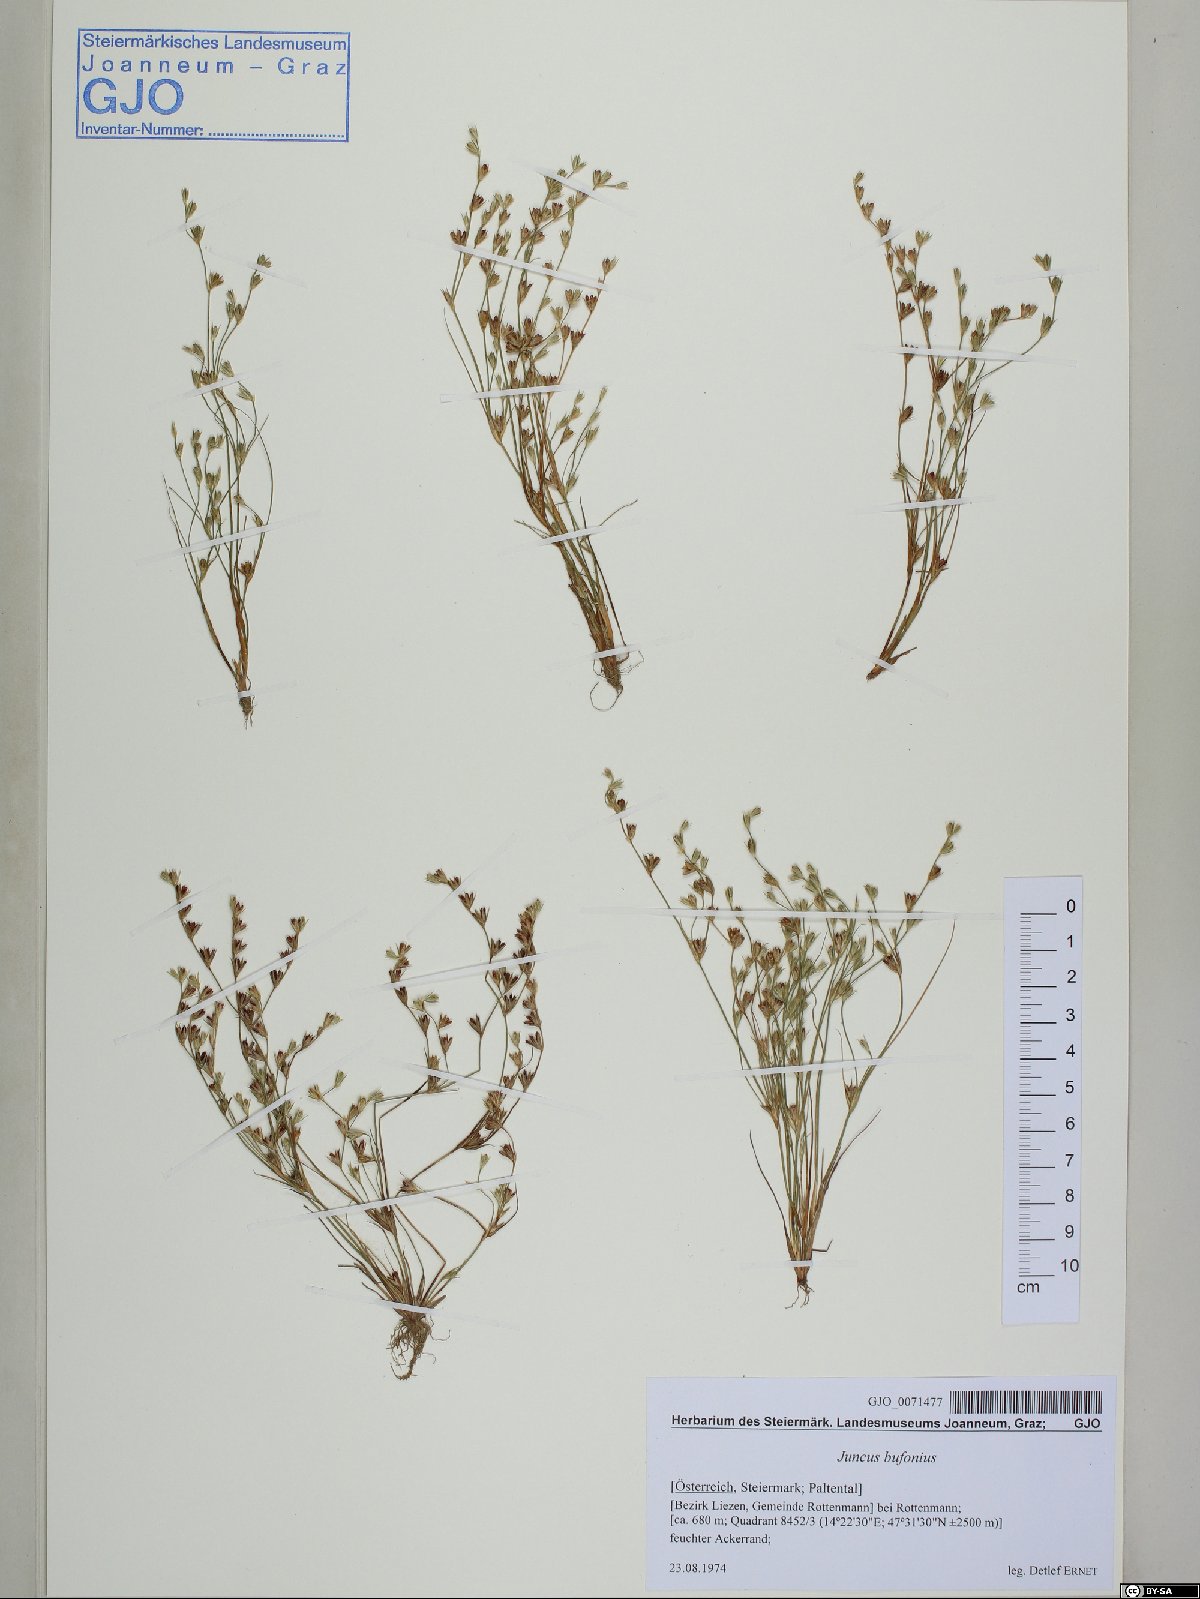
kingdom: Plantae
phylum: Tracheophyta
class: Liliopsida
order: Poales
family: Juncaceae
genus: Juncus
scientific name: Juncus bufonius
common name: Toad rush
